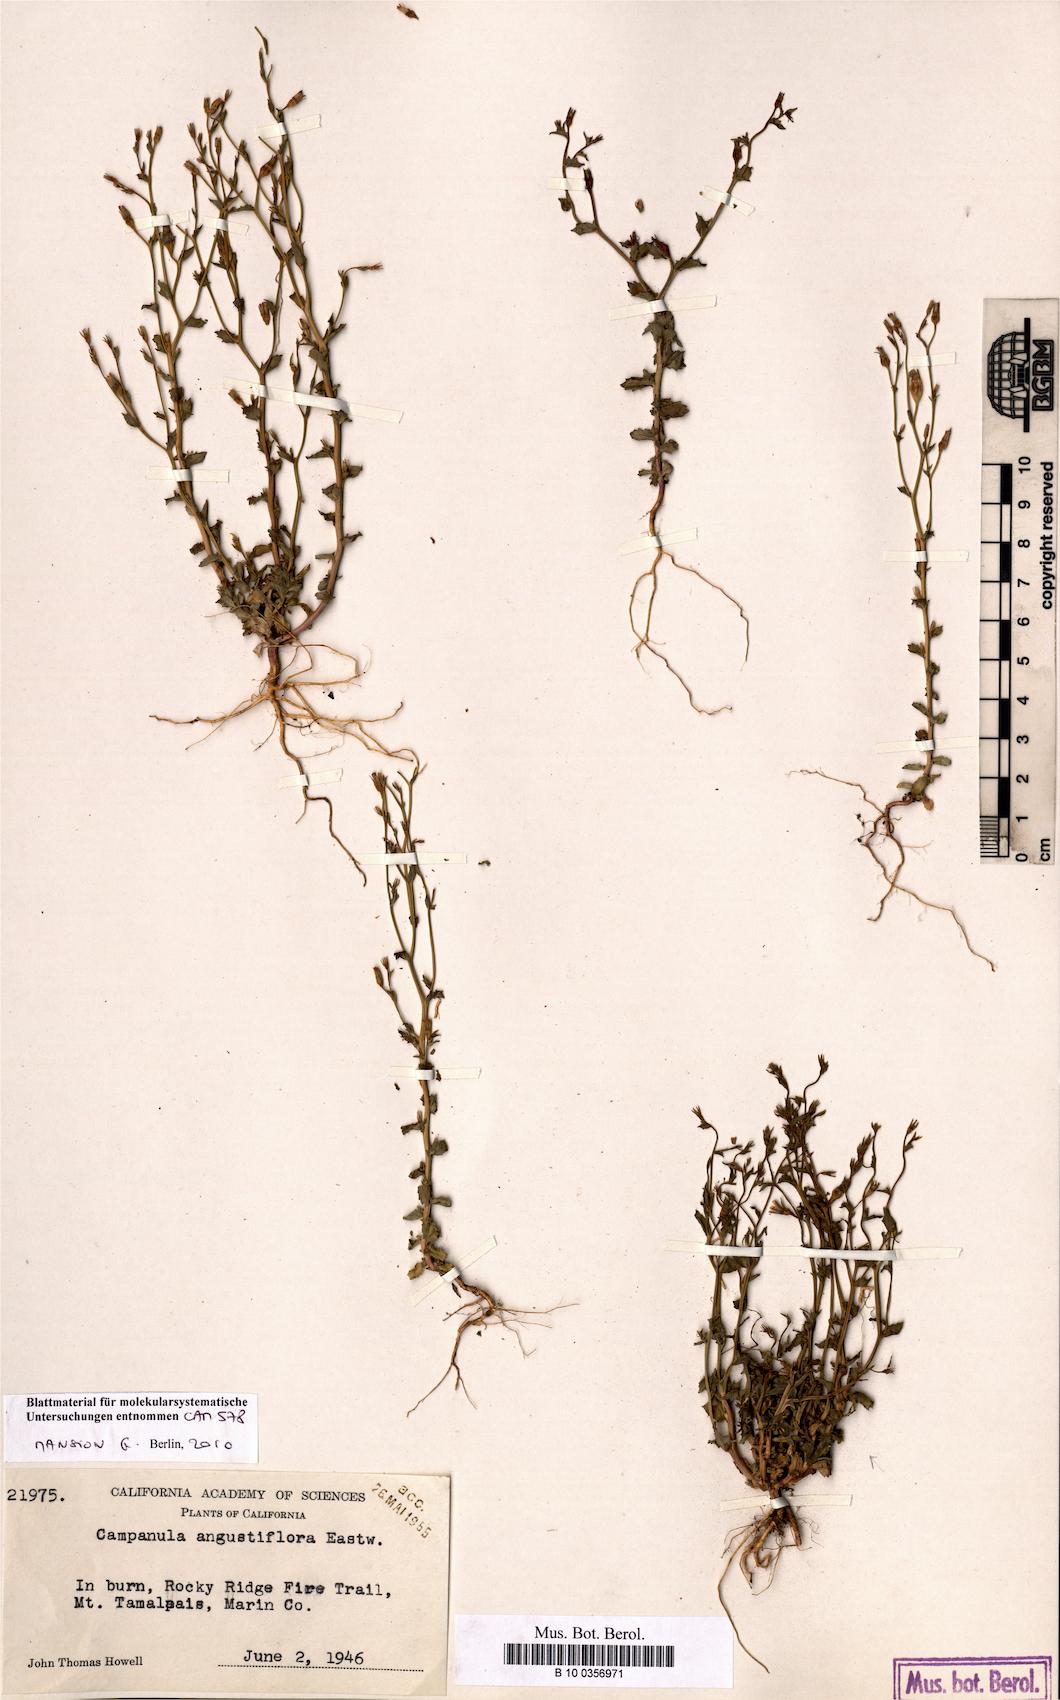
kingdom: Plantae
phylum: Tracheophyta
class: Magnoliopsida
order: Asterales
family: Campanulaceae
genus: Ravenella
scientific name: Ravenella angustiflora
